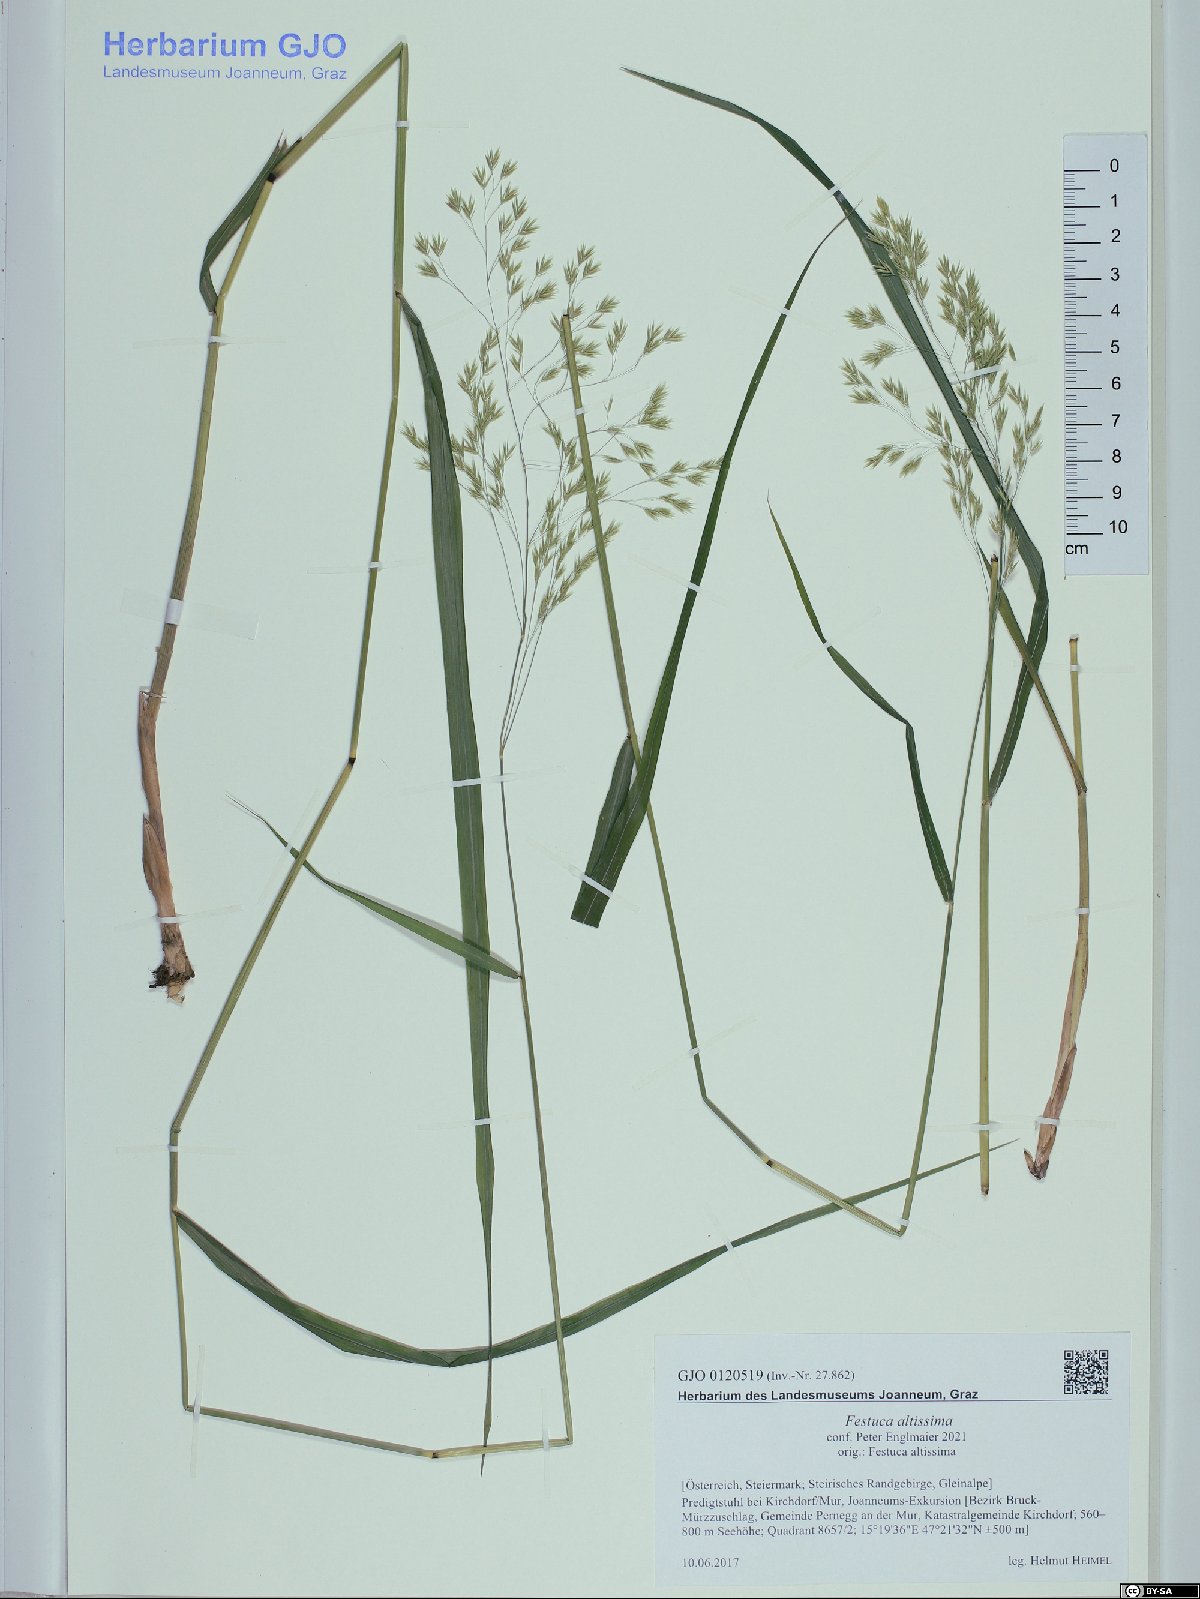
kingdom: Plantae
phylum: Tracheophyta
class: Liliopsida
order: Poales
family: Poaceae
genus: Festuca
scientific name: Festuca altissima
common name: Wood fescue
